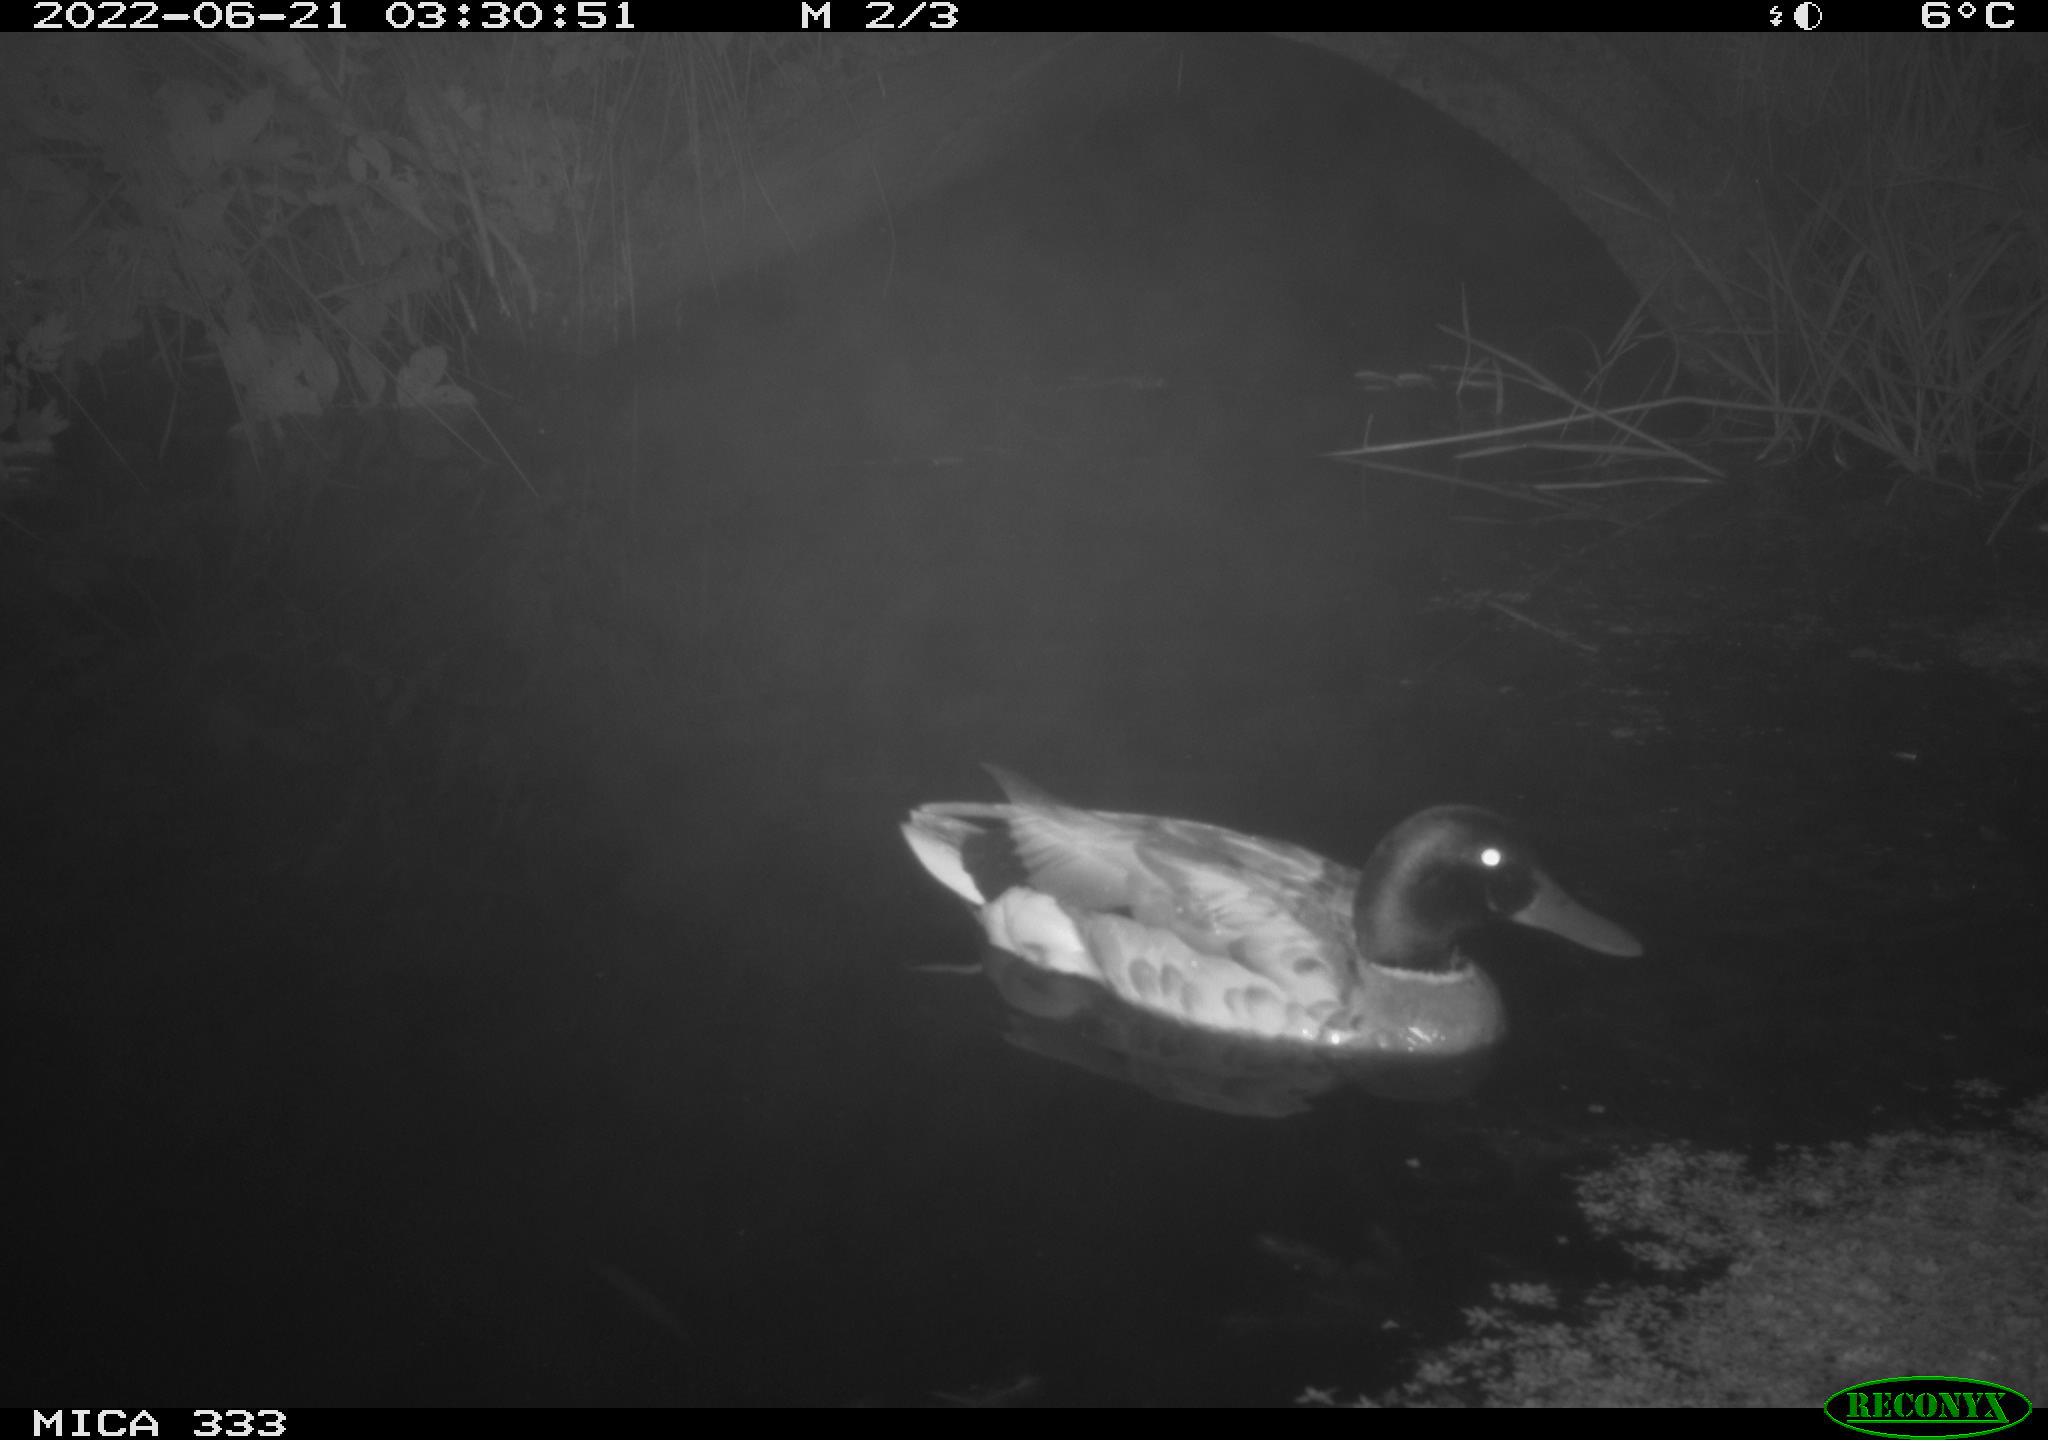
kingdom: Animalia
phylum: Chordata
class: Aves
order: Anseriformes
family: Anatidae
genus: Anas
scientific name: Anas platyrhynchos
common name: Mallard
